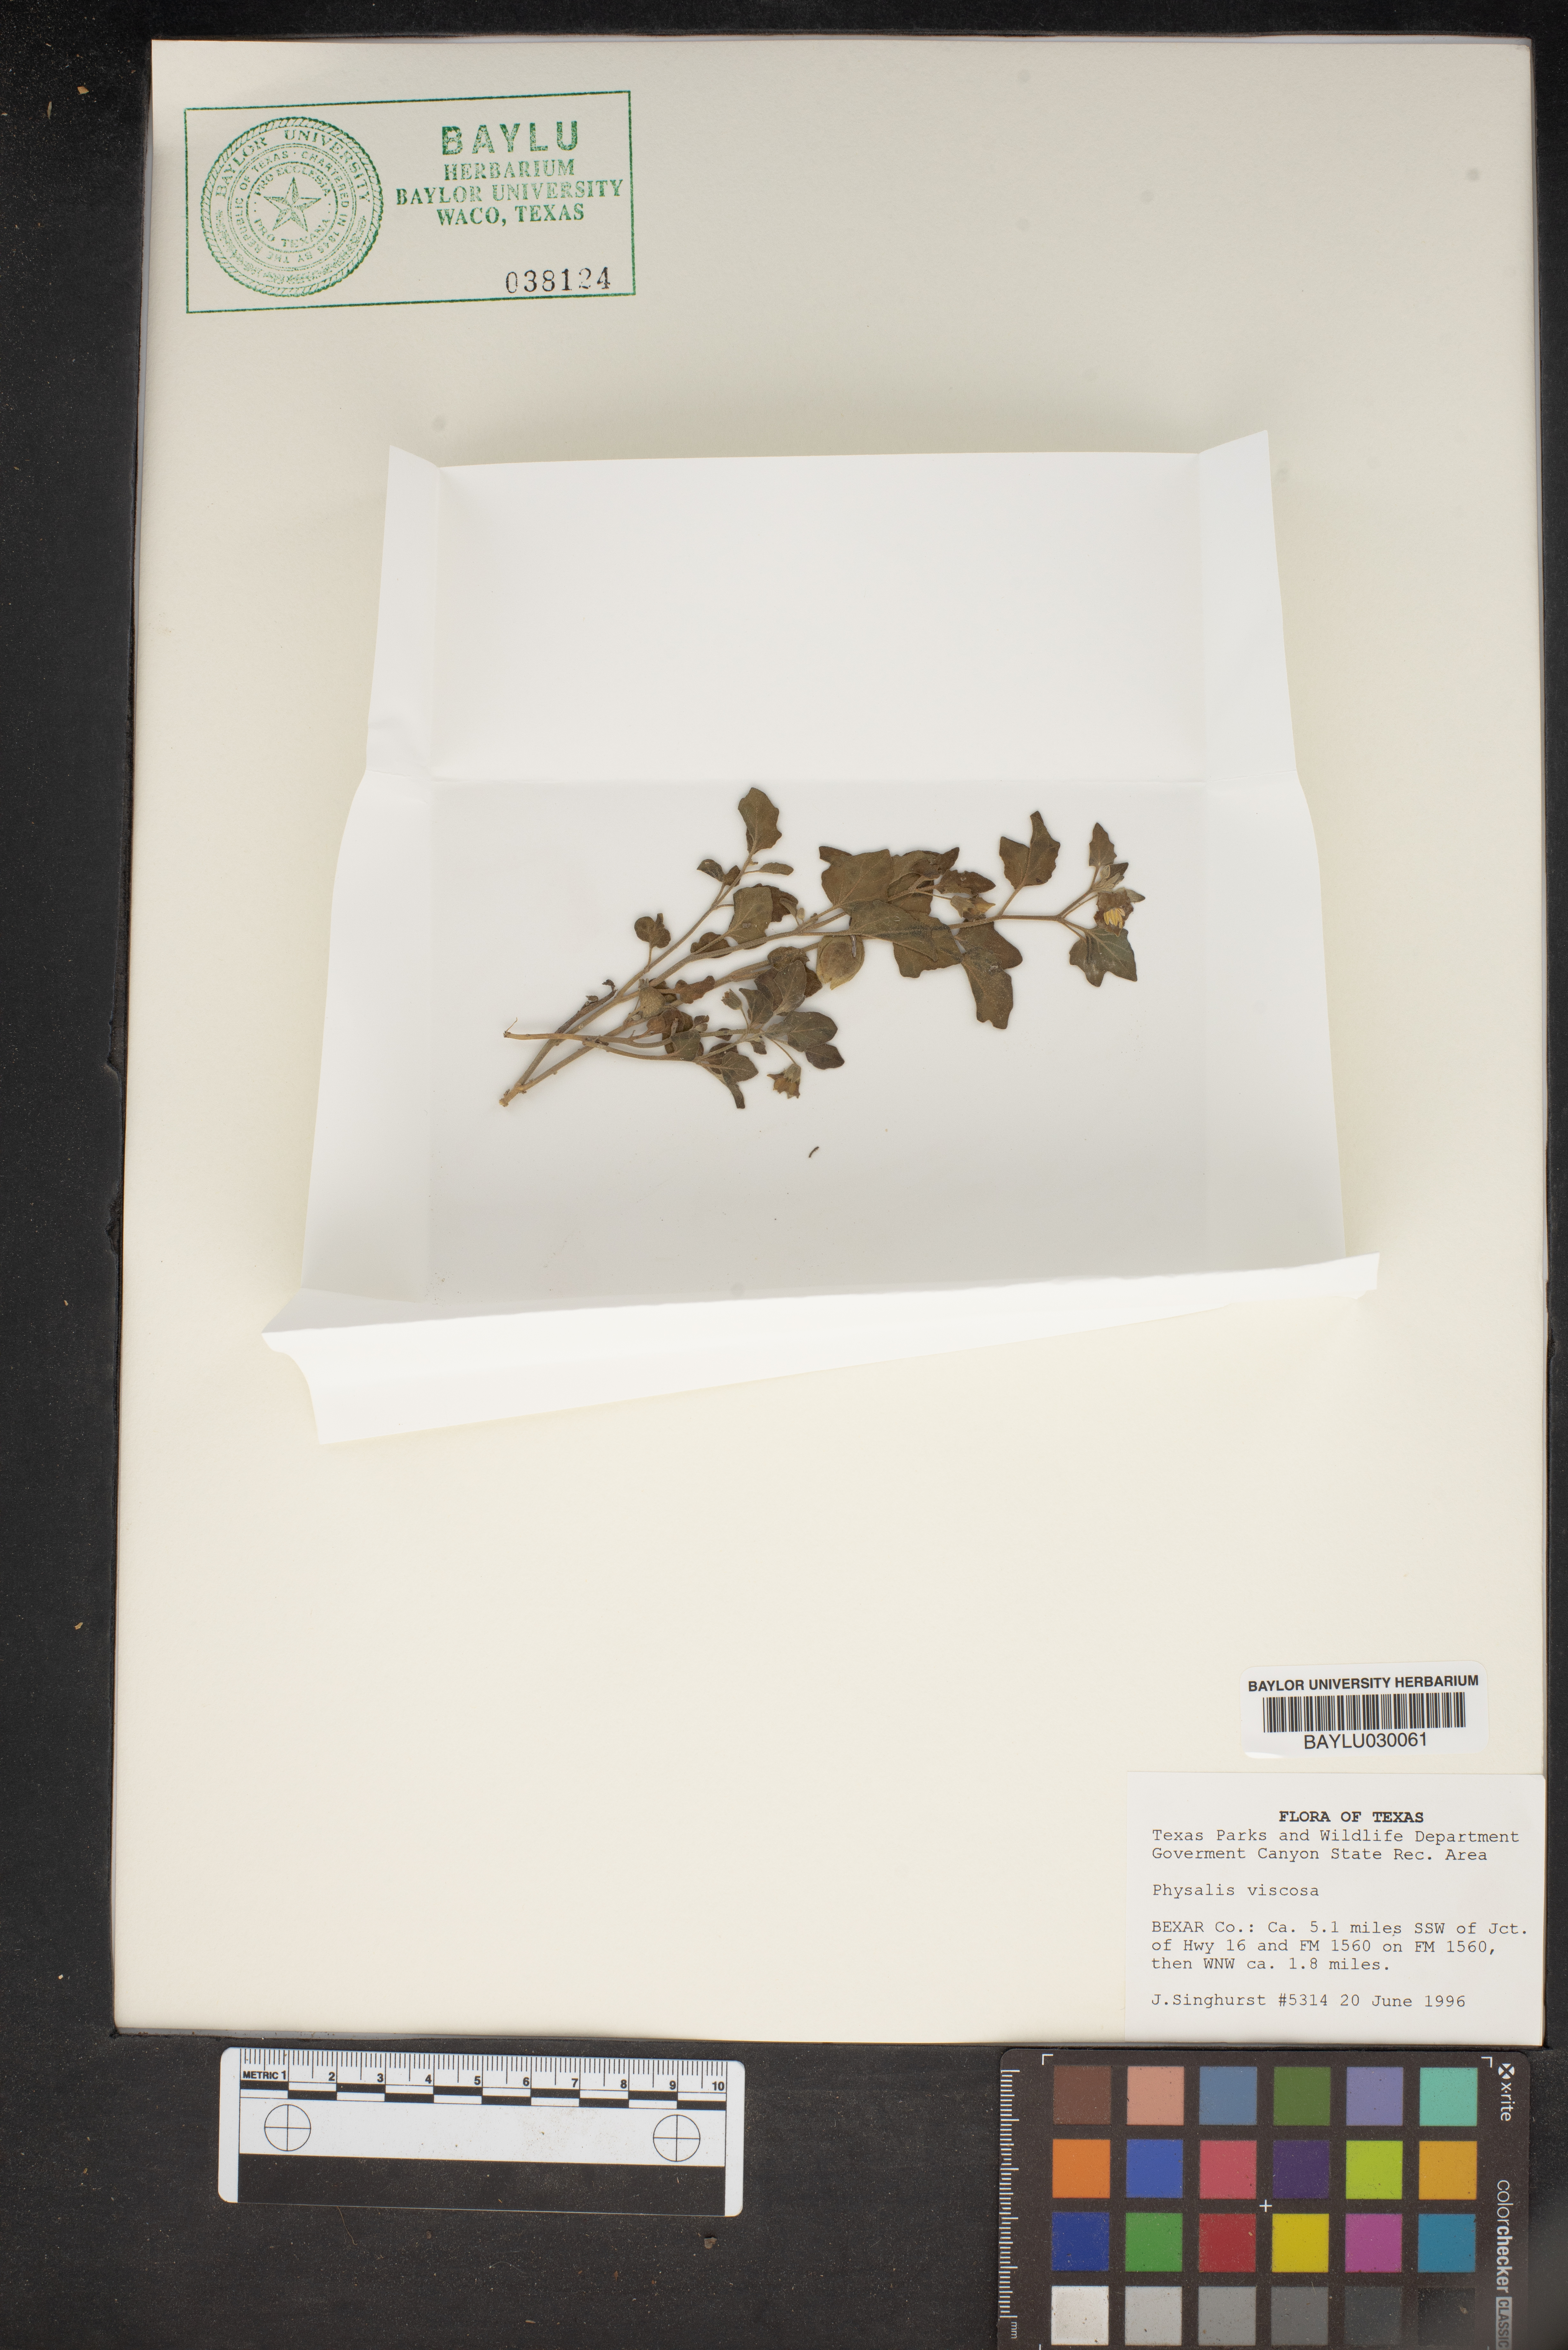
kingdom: Plantae
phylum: Tracheophyta
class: Magnoliopsida
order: Solanales
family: Solanaceae
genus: Physalis
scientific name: Physalis viscosa
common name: Stellate ground-cherry
